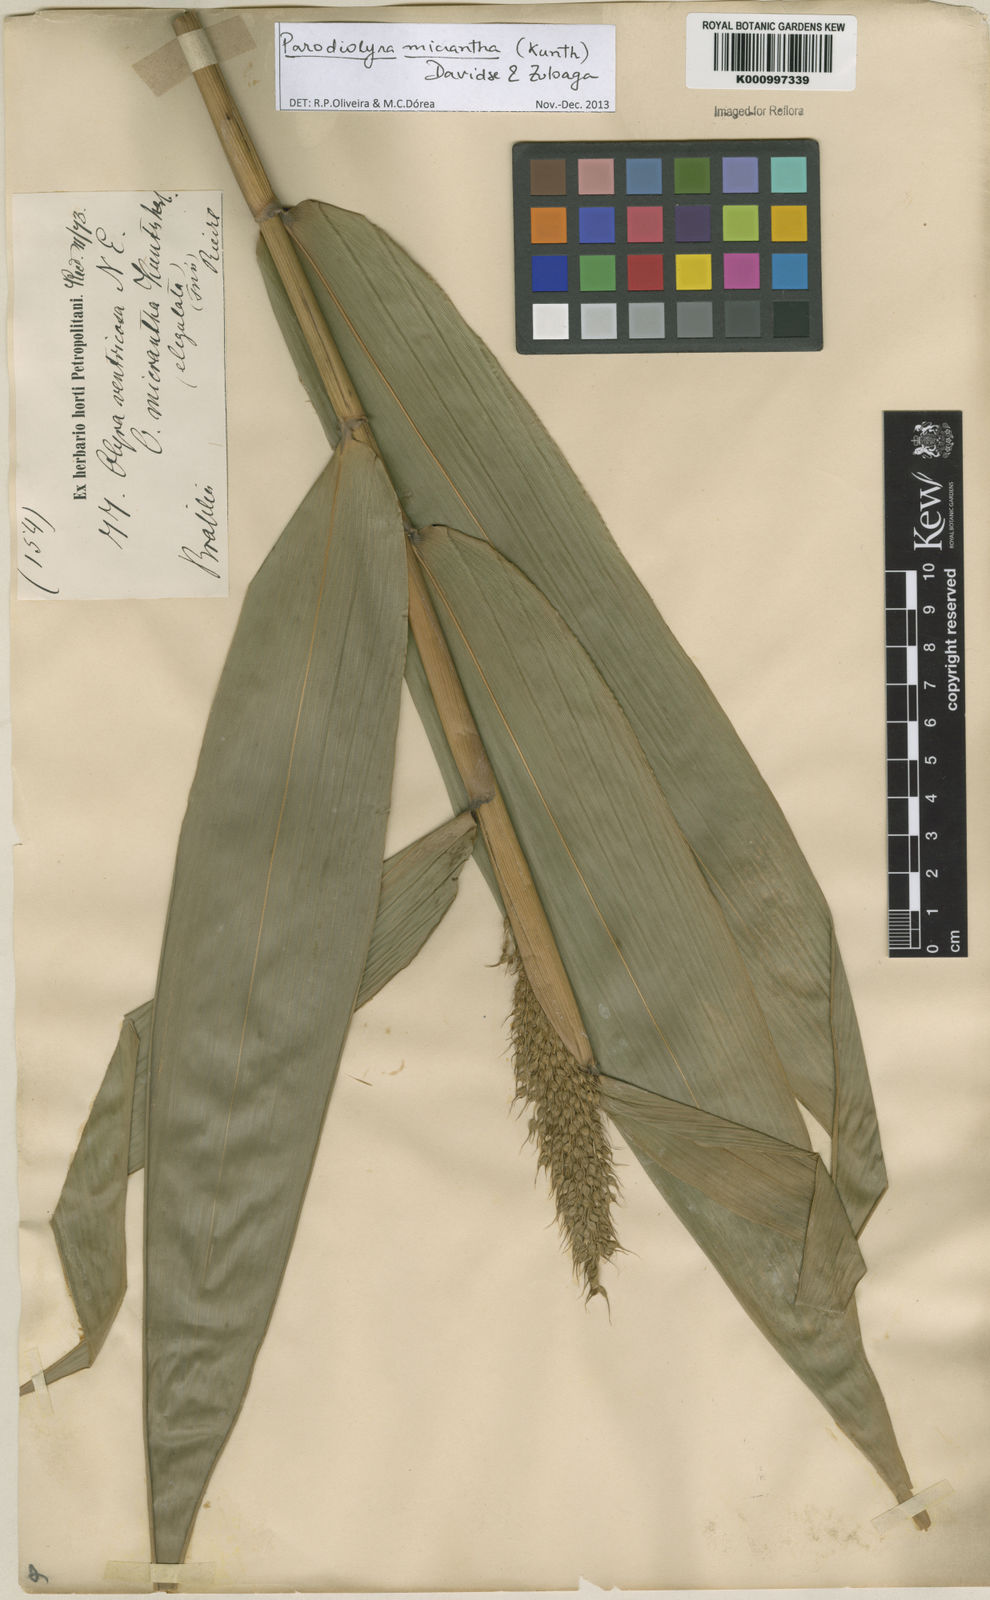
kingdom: Plantae
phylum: Tracheophyta
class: Liliopsida
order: Poales
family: Poaceae
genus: Taquara
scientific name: Taquara micrantha
